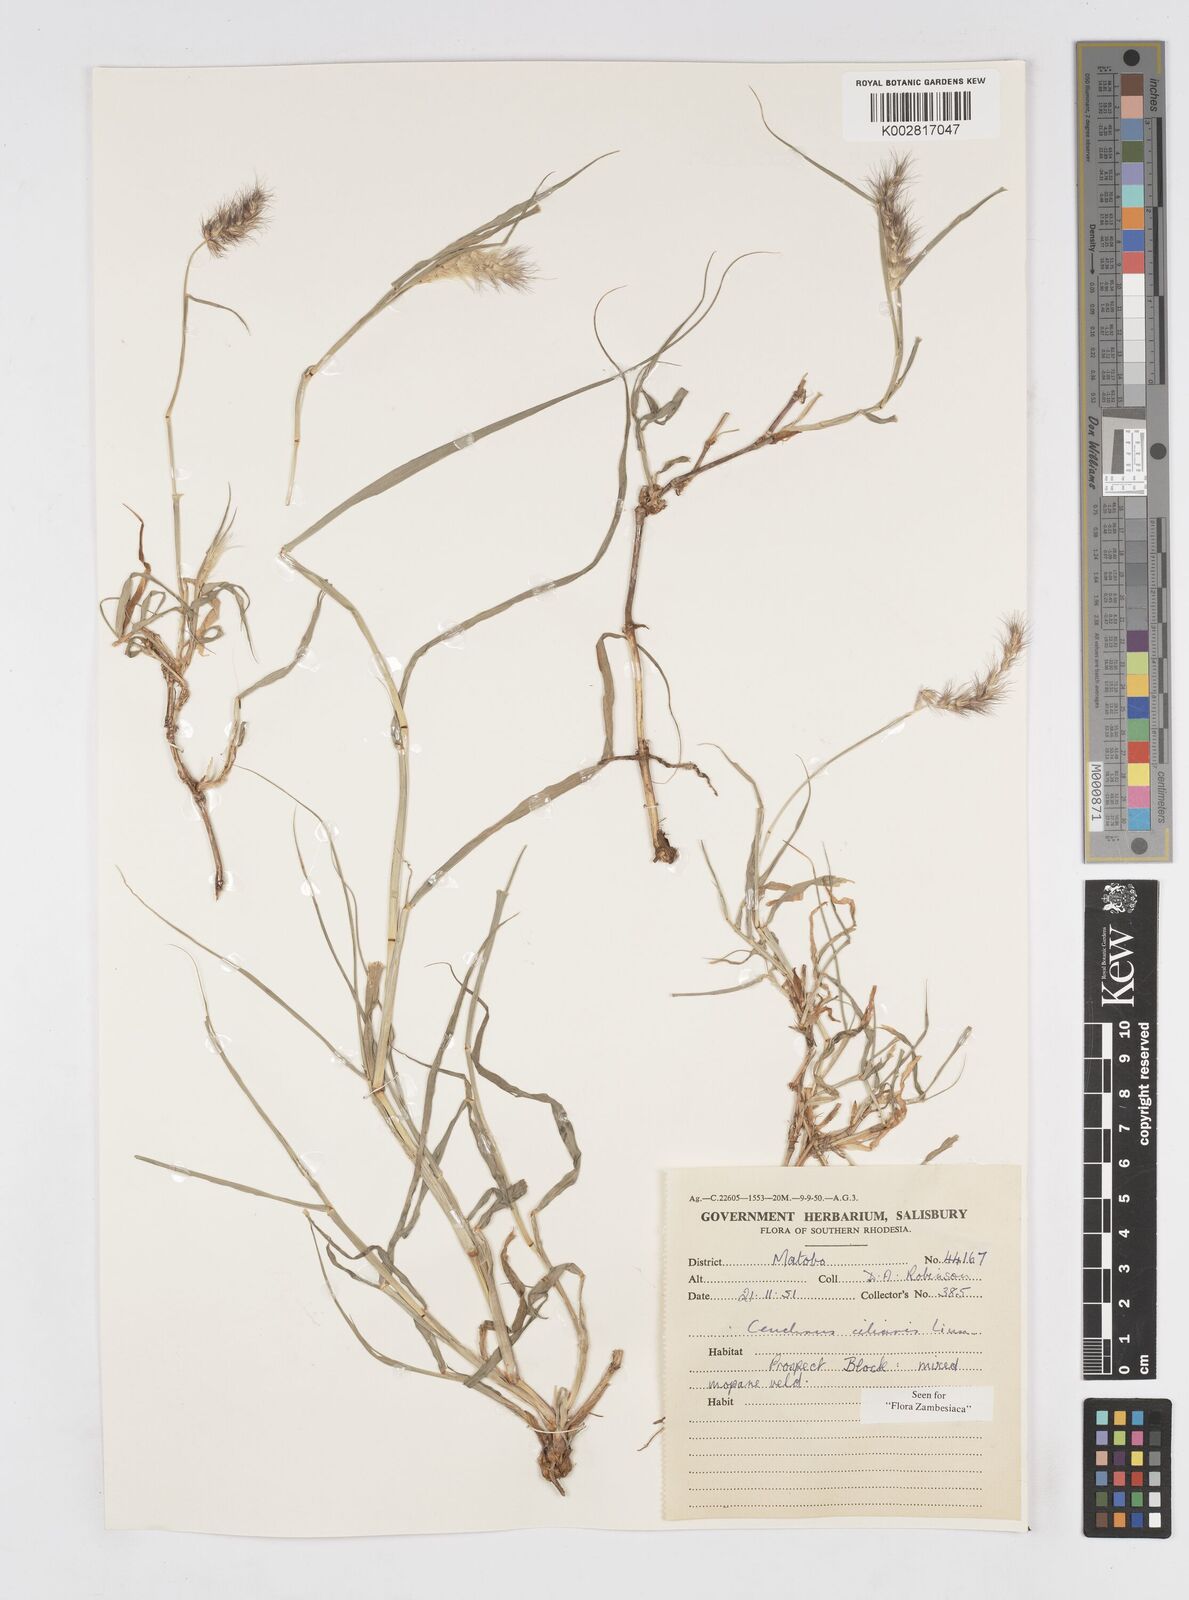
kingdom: Plantae
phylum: Tracheophyta
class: Liliopsida
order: Poales
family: Poaceae
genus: Cenchrus
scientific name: Cenchrus ciliaris
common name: Buffelgrass
